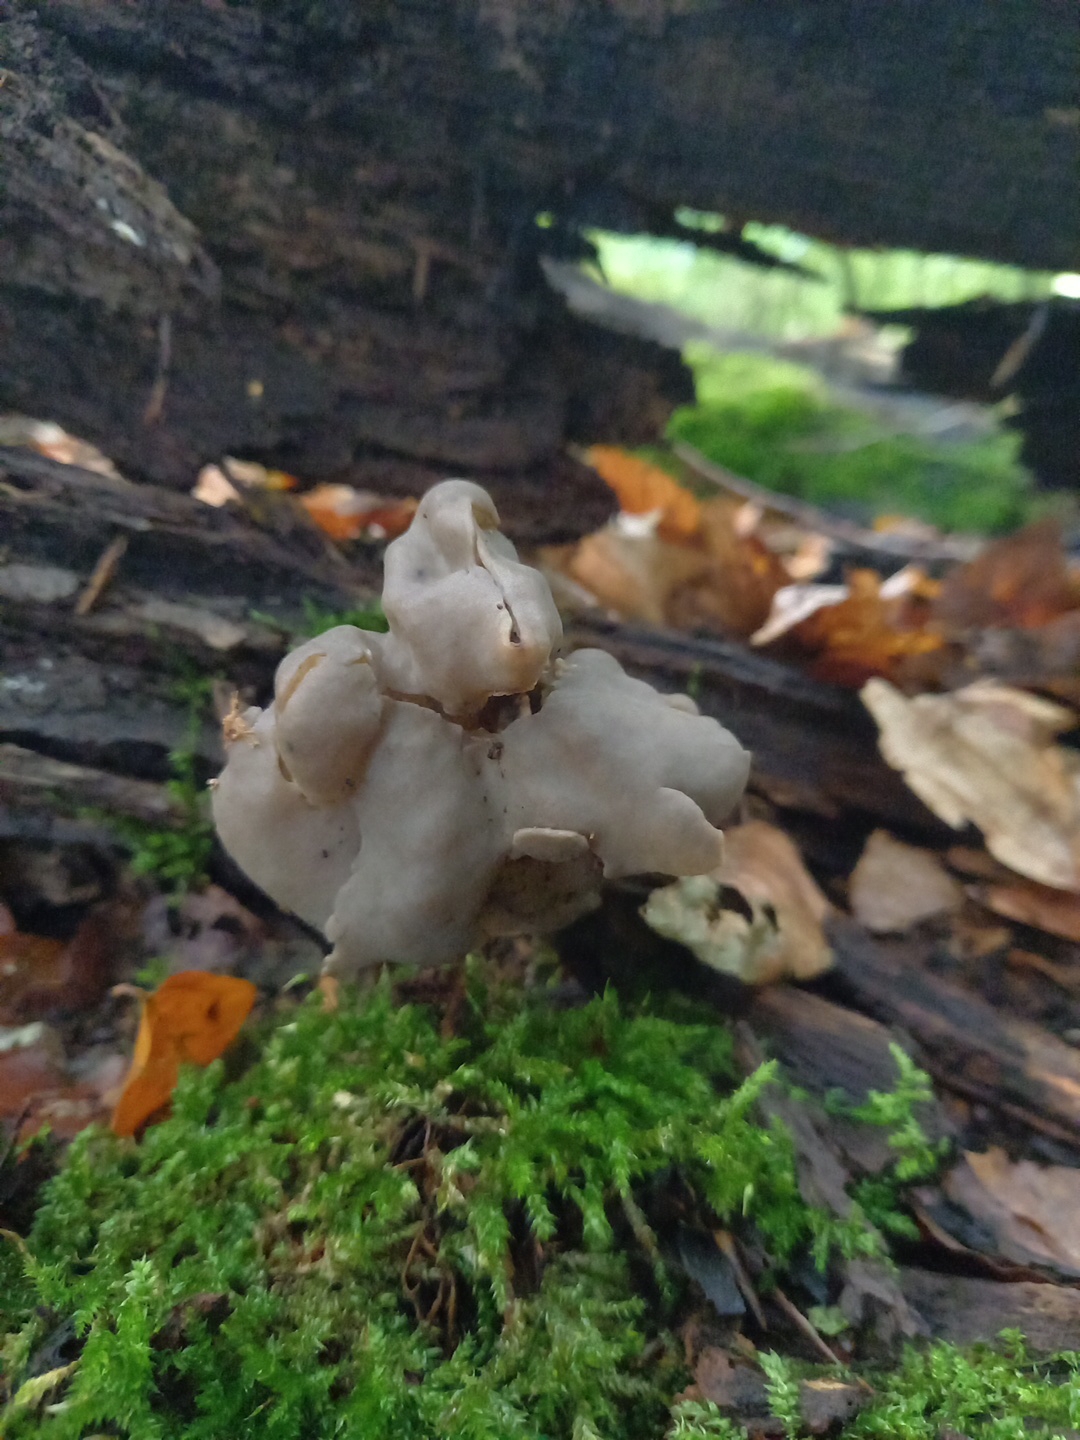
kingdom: Fungi
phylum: Ascomycota
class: Pezizomycetes
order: Pezizales
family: Helvellaceae
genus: Helvella
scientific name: Helvella lacunosa
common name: grubet foldhat
